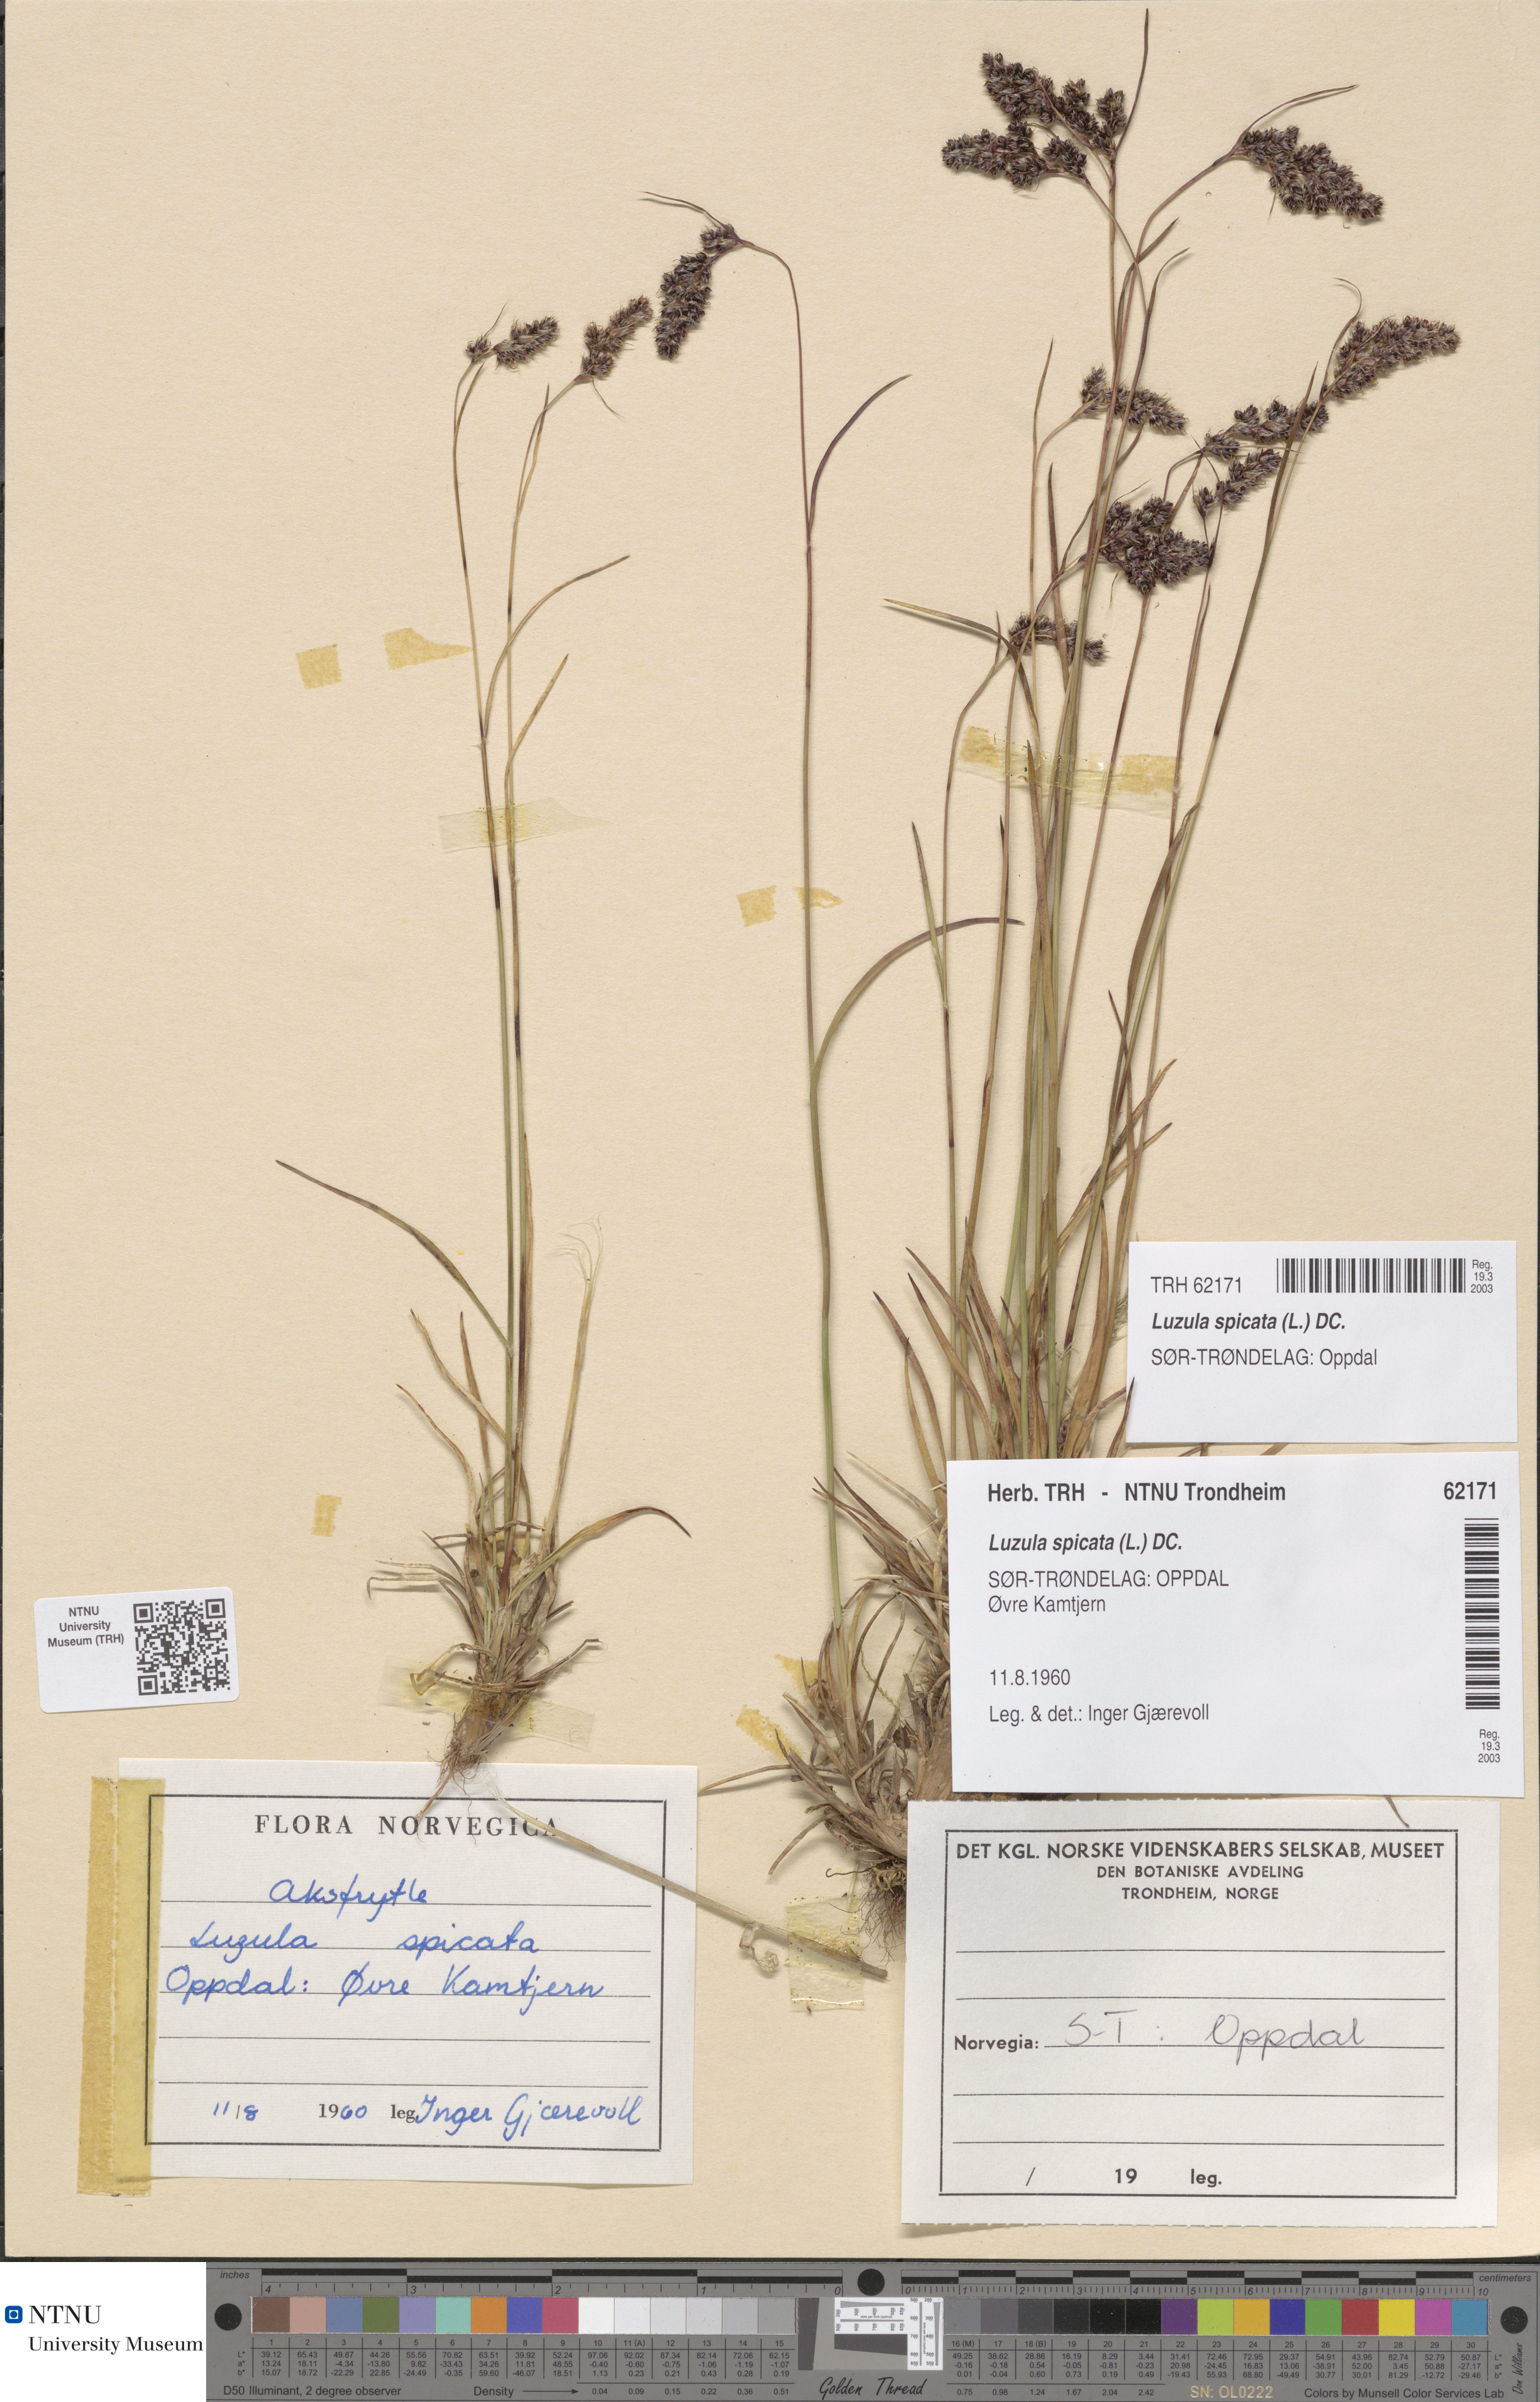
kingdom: Plantae
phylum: Tracheophyta
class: Liliopsida
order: Poales
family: Juncaceae
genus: Luzula
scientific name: Luzula spicata
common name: Spiked wood-rush
